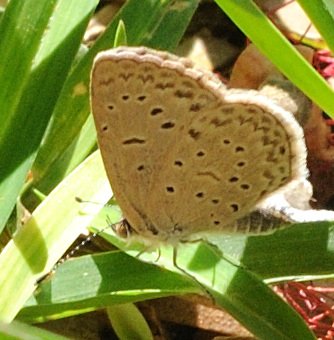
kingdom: Animalia
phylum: Arthropoda
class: Insecta
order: Lepidoptera
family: Lycaenidae
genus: Zizeeria
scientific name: Zizeeria knysna
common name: Dark Grass Blue
